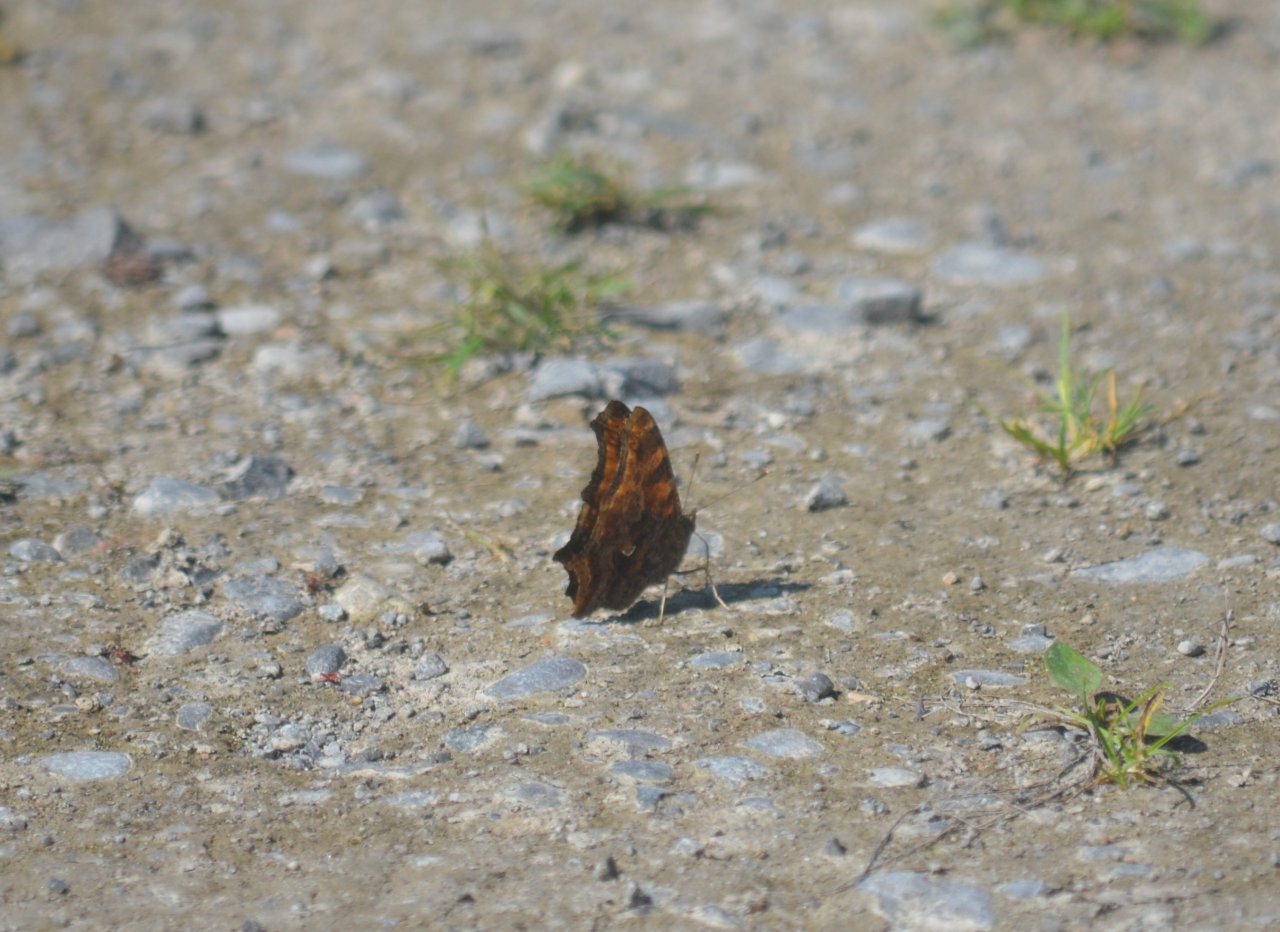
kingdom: Animalia
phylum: Arthropoda
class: Insecta
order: Lepidoptera
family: Nymphalidae
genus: Polygonia
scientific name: Polygonia comma
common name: Eastern Comma
